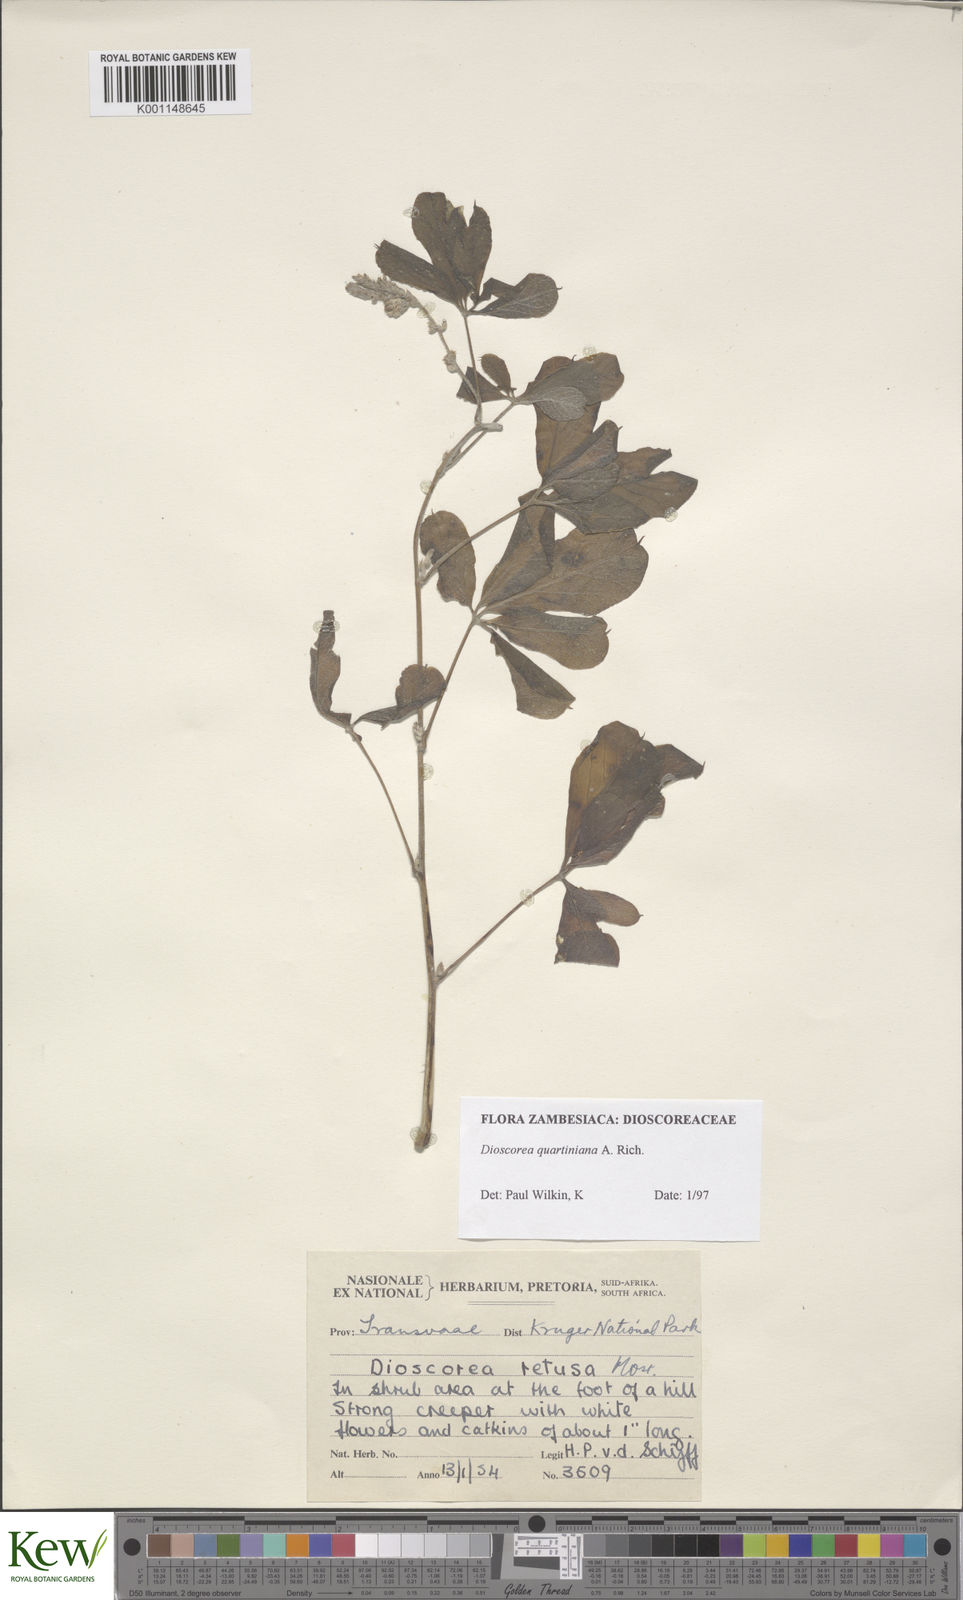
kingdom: Plantae
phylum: Tracheophyta
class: Liliopsida
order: Dioscoreales
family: Dioscoreaceae
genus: Dioscorea
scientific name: Dioscorea quartiniana
